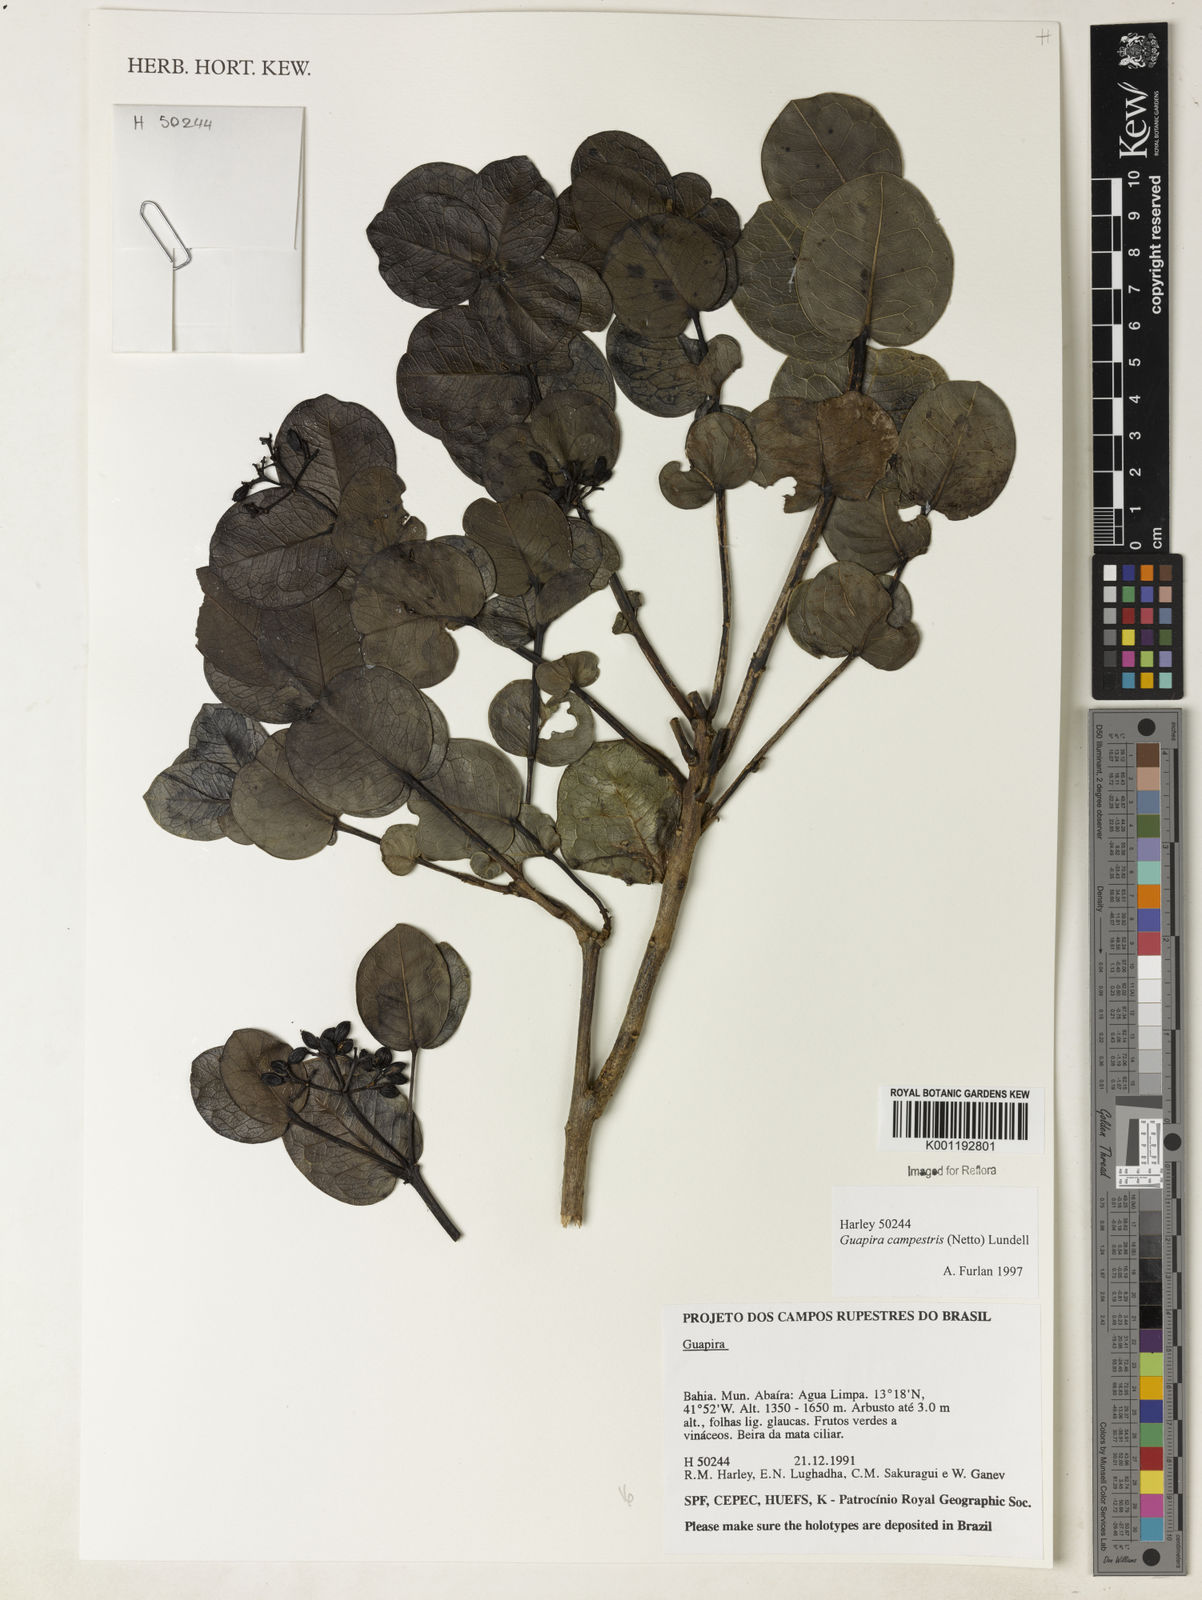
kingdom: Plantae
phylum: Tracheophyta
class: Magnoliopsida
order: Caryophyllales
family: Nyctaginaceae
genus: Guapira
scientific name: Guapira campestris
